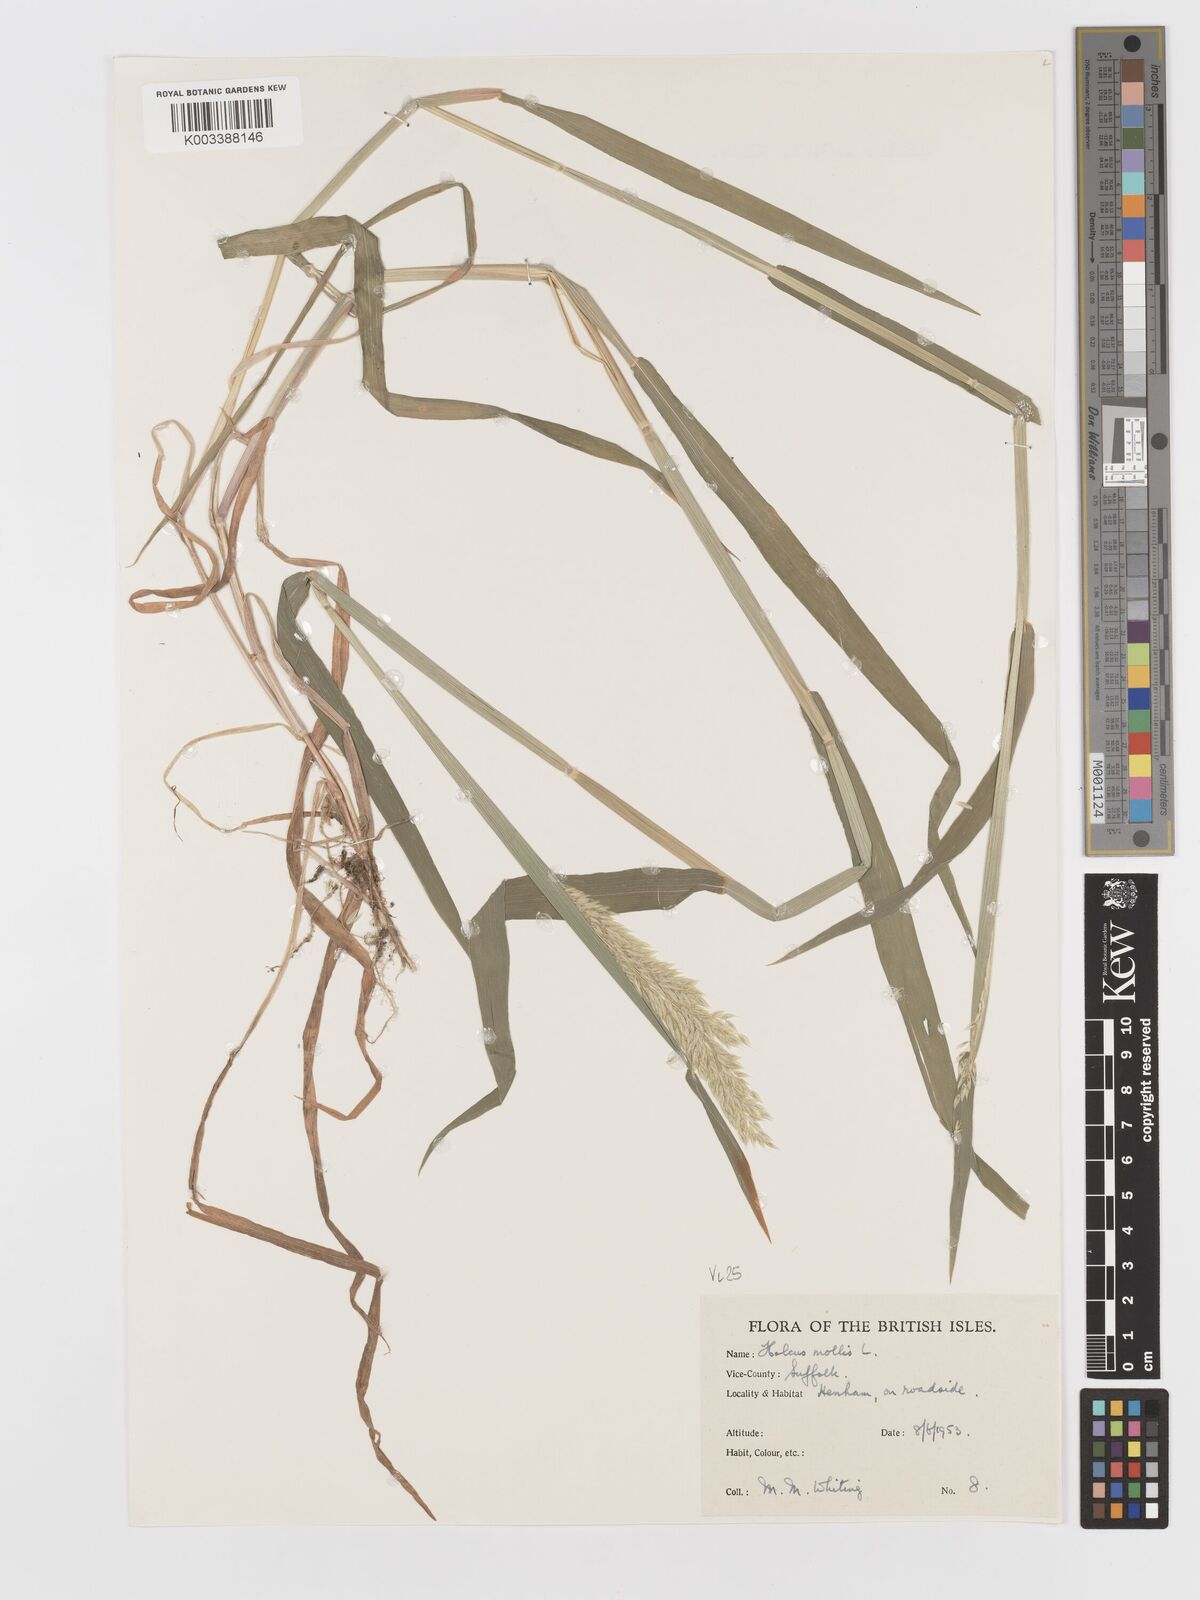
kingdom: Plantae
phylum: Tracheophyta
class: Liliopsida
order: Poales
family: Poaceae
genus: Holcus
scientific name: Holcus mollis
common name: Creeping velvetgrass
